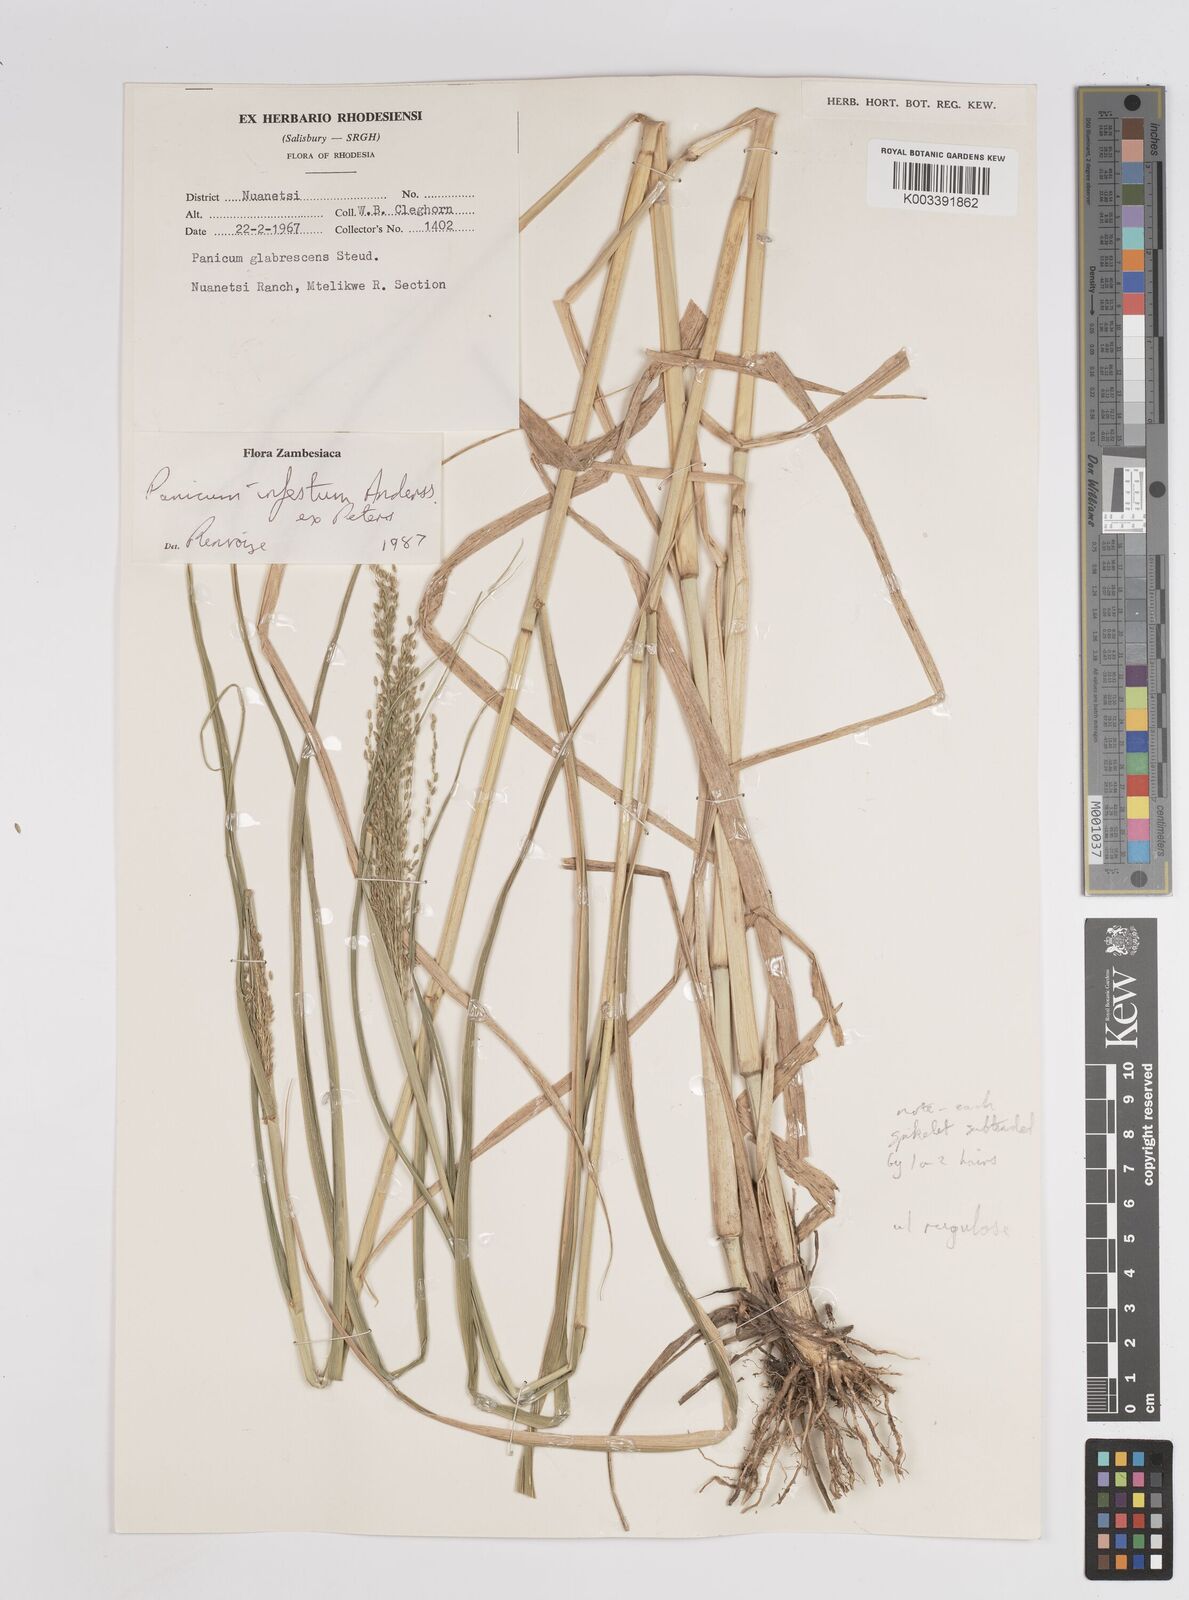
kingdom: Plantae
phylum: Tracheophyta
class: Liliopsida
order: Poales
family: Poaceae
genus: Megathyrsus
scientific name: Megathyrsus infestus
